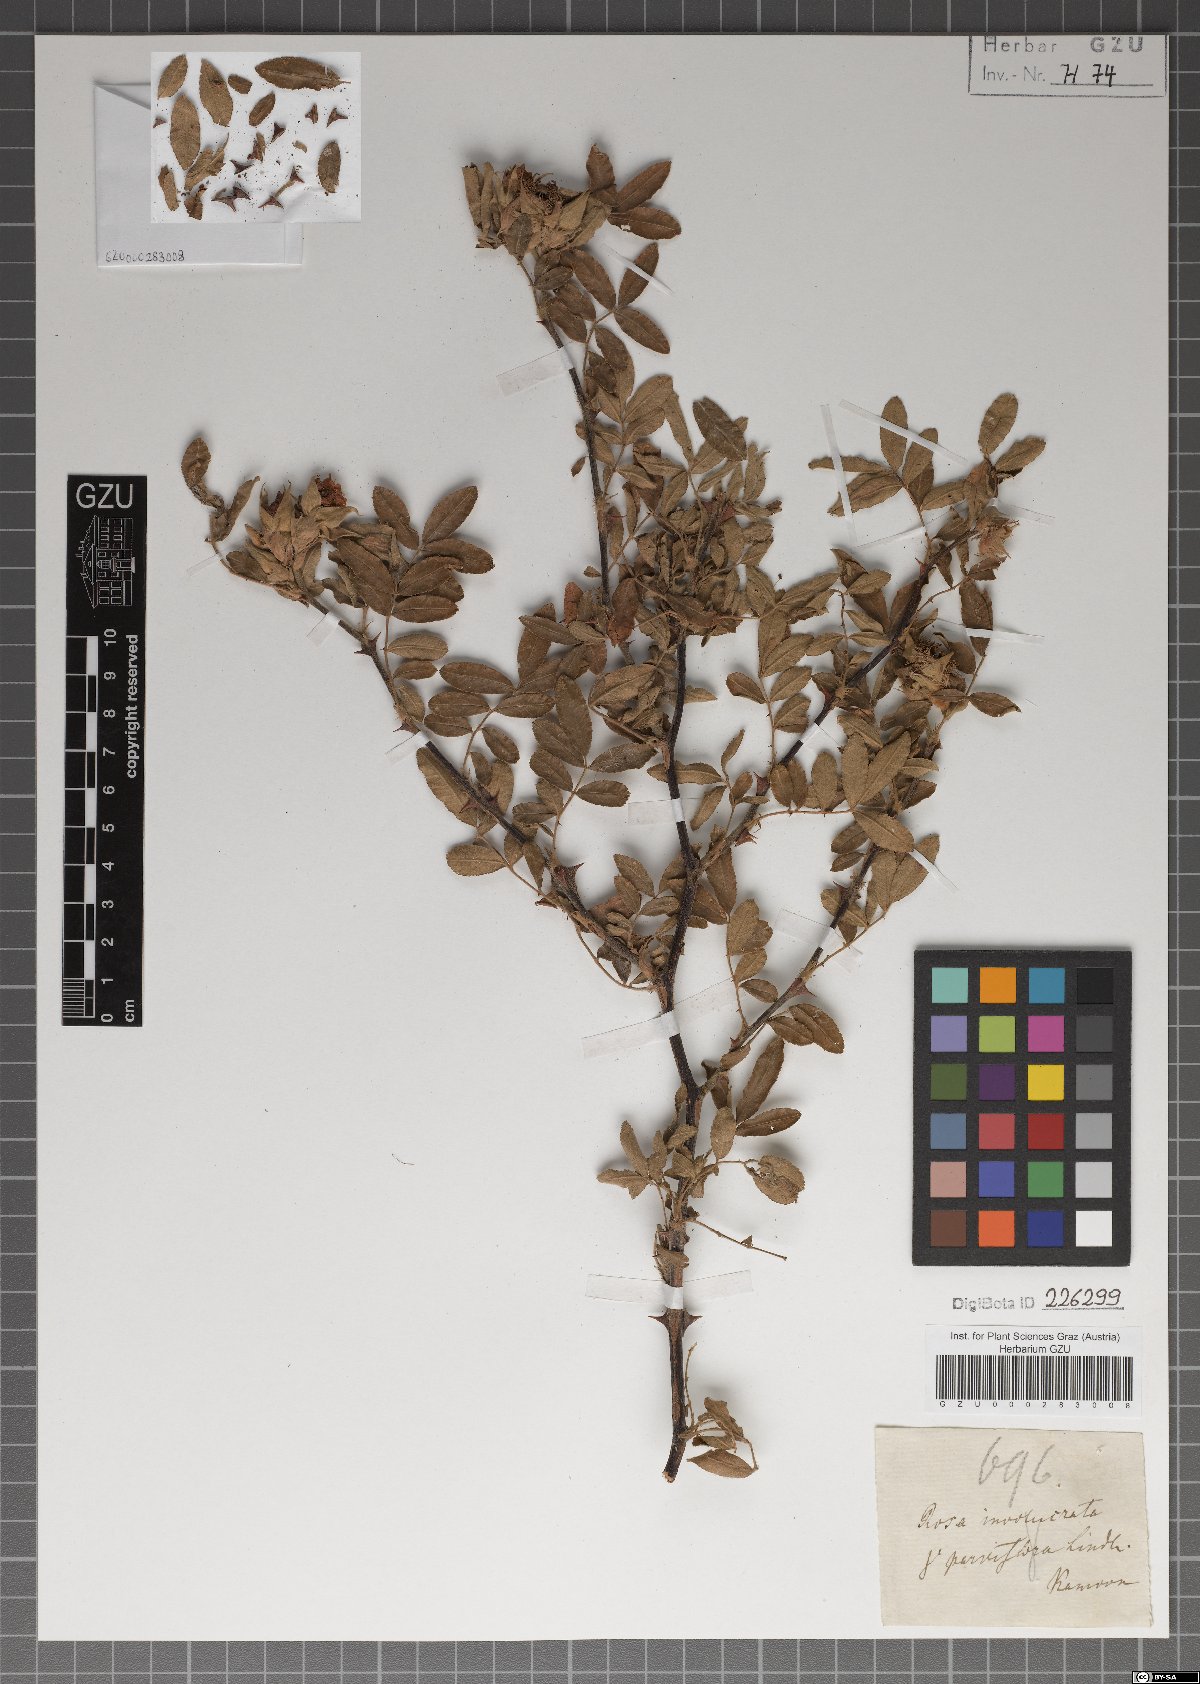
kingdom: Plantae
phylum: Tracheophyta
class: Magnoliopsida
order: Rosales
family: Rosaceae
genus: Rosa
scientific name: Rosa clinophylla
